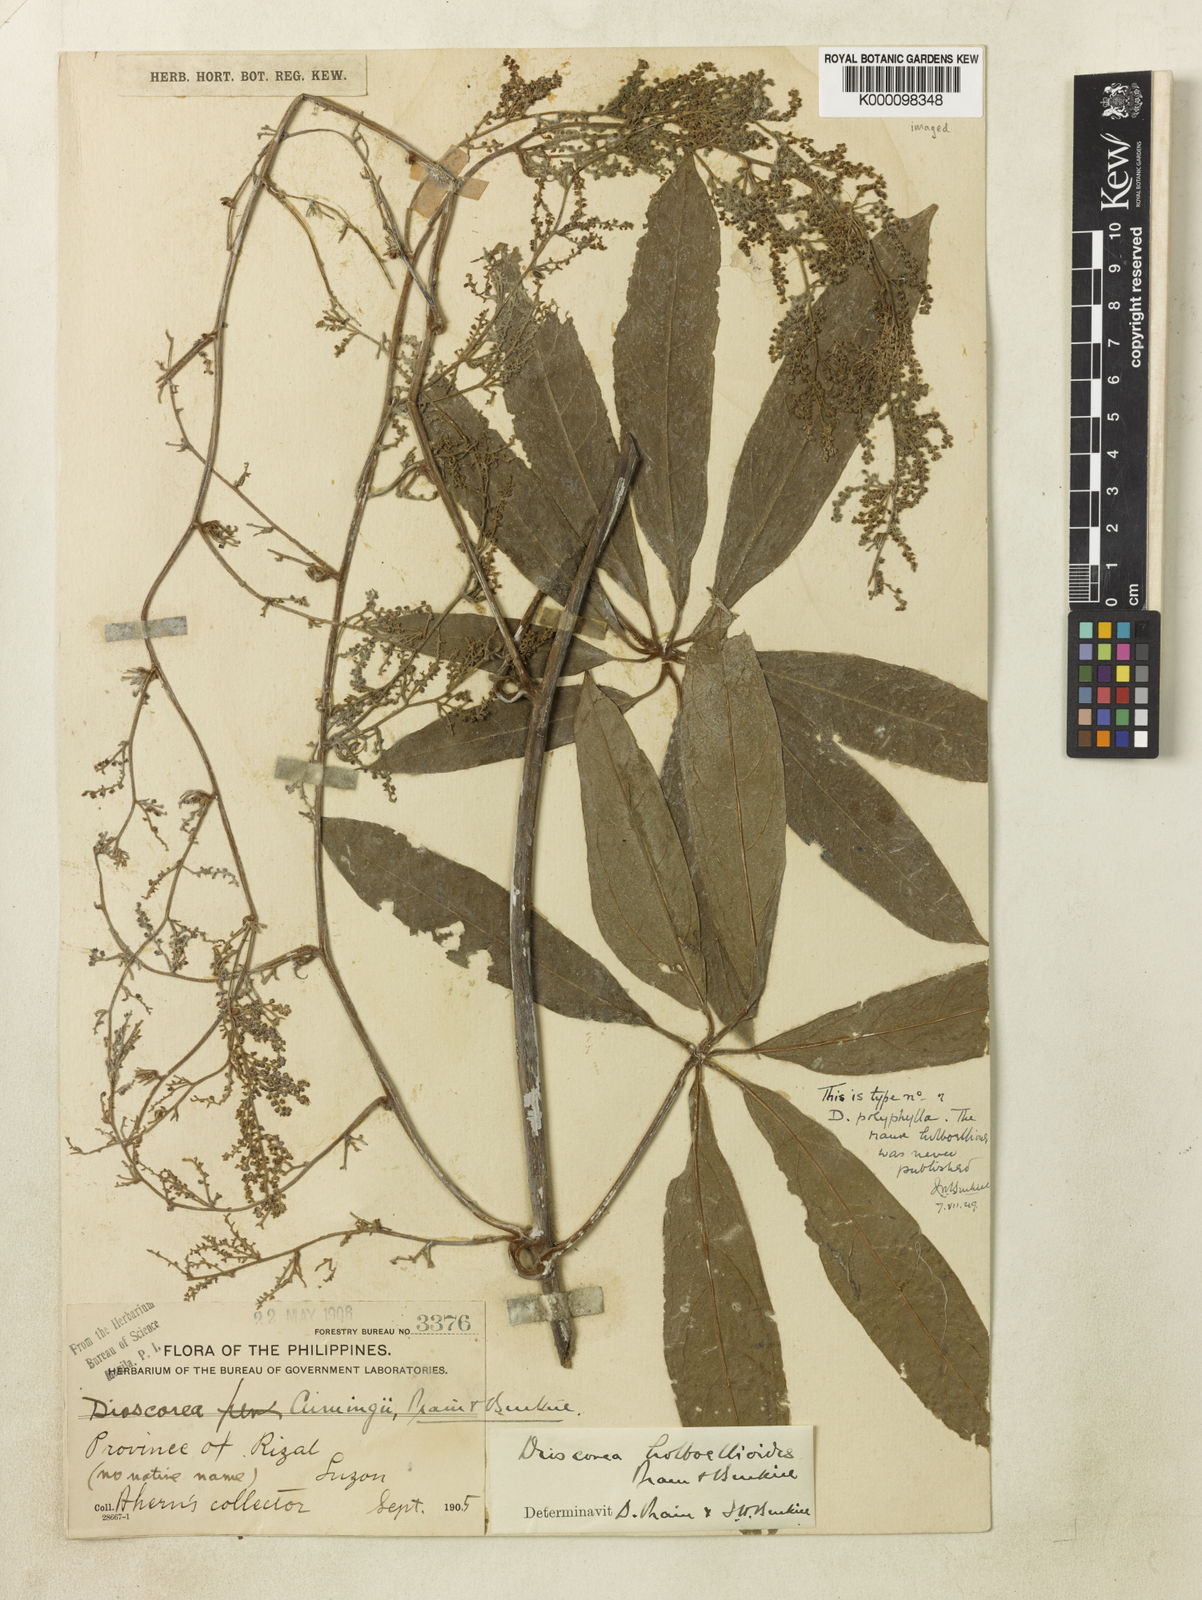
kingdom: Plantae
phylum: Tracheophyta
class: Liliopsida
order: Dioscoreales
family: Dioscoreaceae
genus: Dioscorea
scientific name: Dioscorea cumingii
